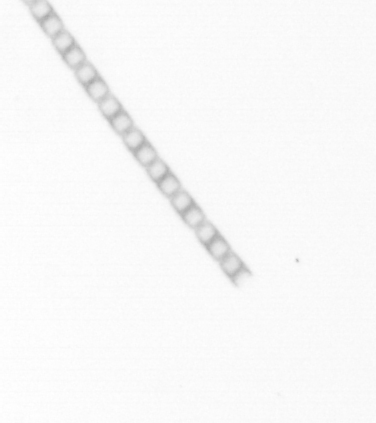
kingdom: Chromista
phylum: Ochrophyta
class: Bacillariophyceae
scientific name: Bacillariophyceae
